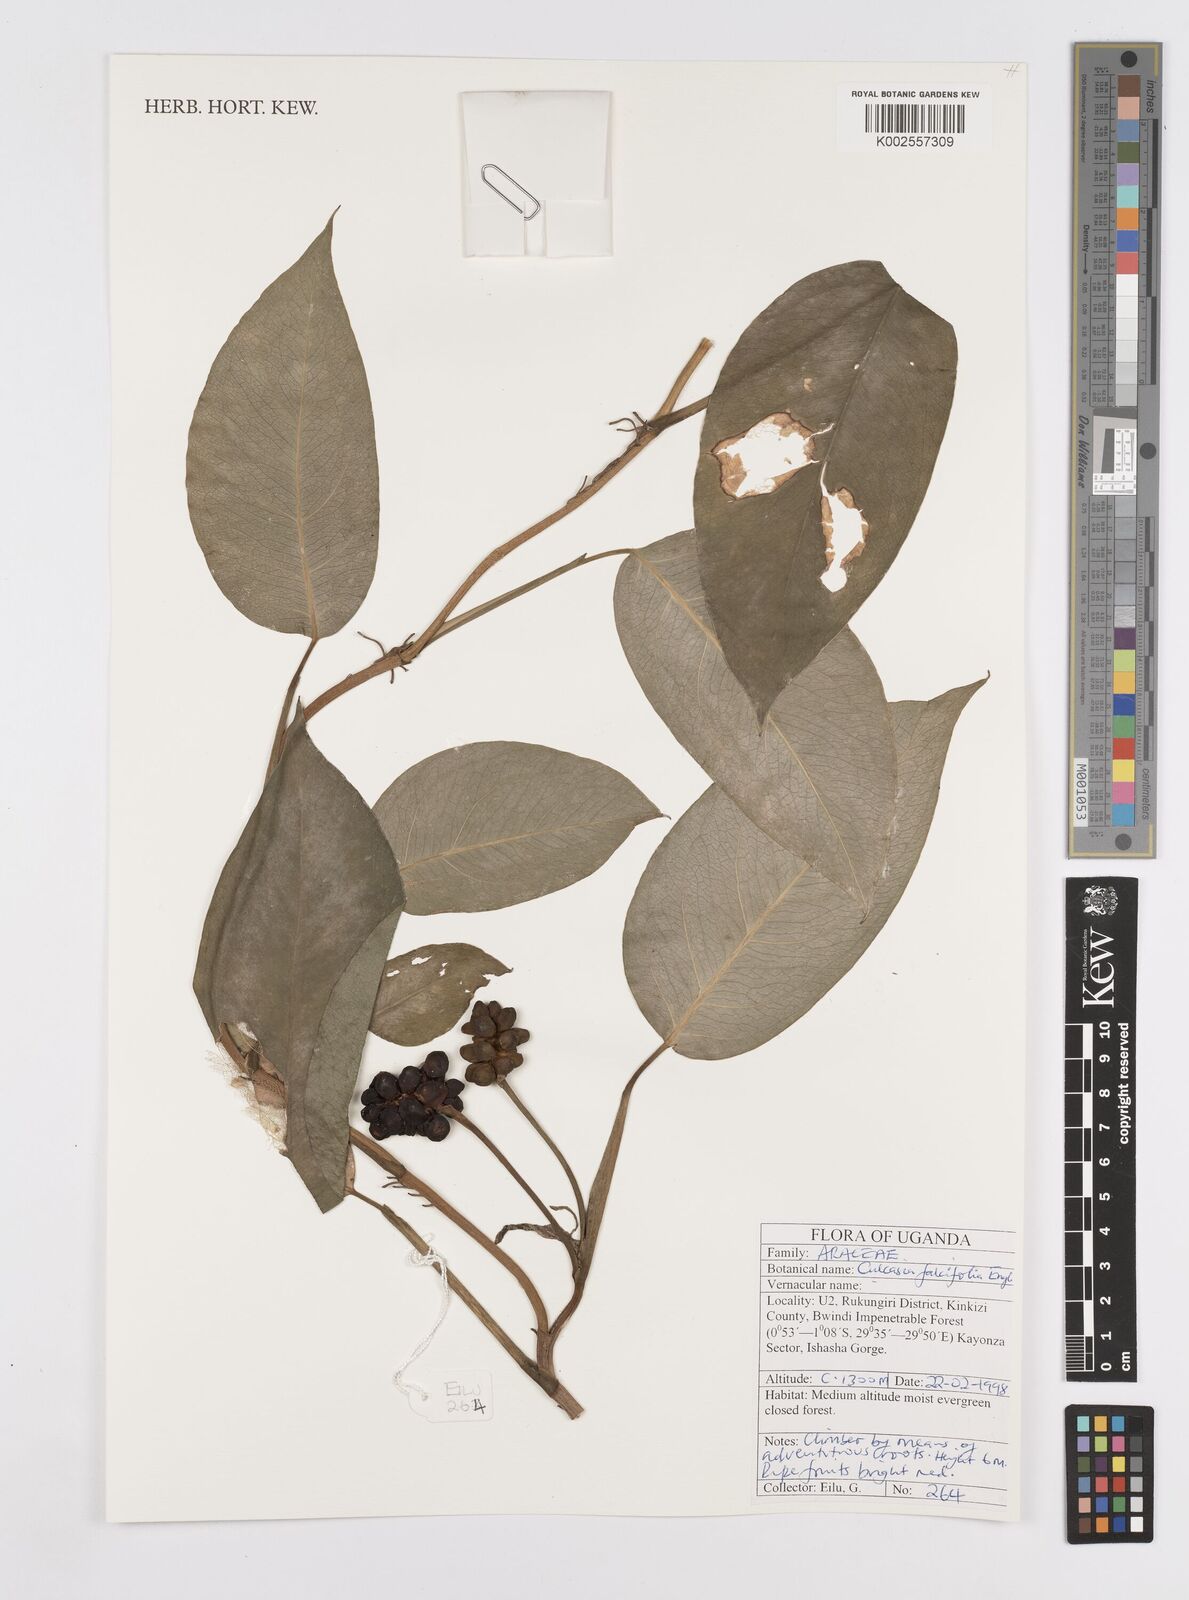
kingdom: Plantae
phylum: Tracheophyta
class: Liliopsida
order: Alismatales
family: Araceae
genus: Culcasia
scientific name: Culcasia falcifolia
